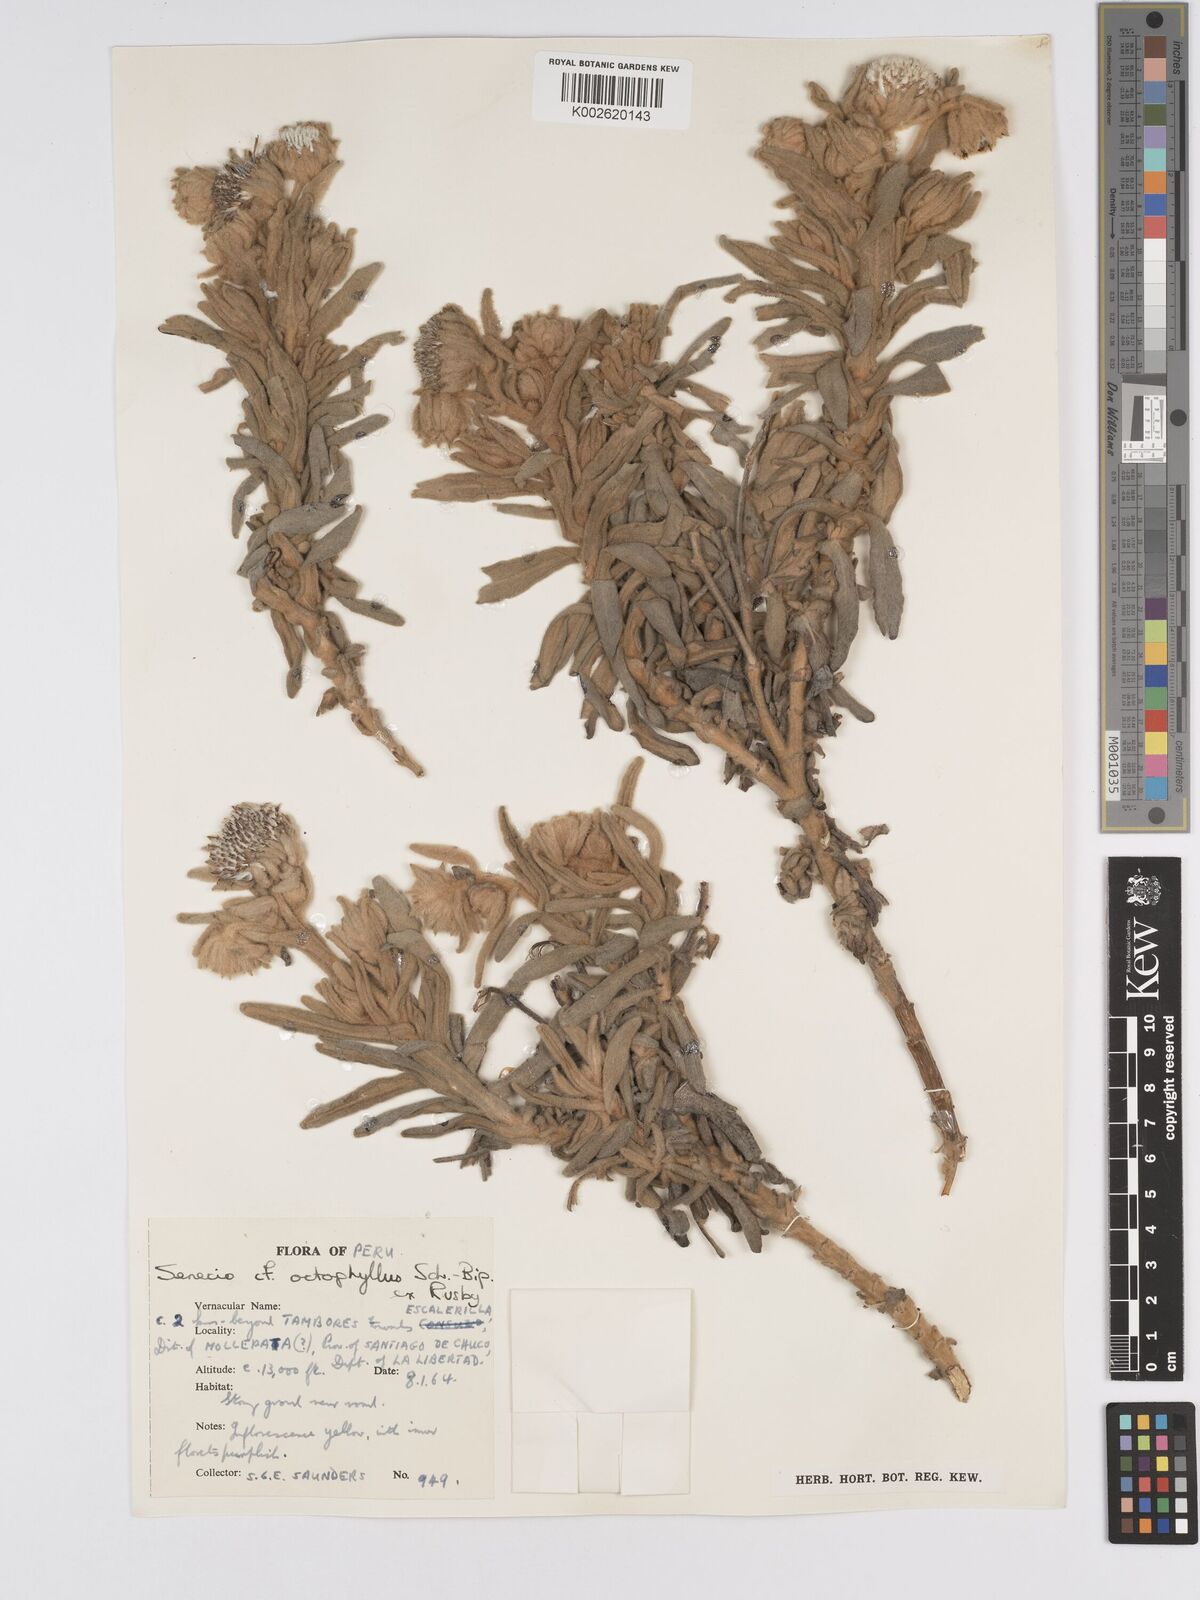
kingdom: Plantae
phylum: Tracheophyta
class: Magnoliopsida
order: Asterales
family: Asteraceae
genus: Senecio
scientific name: Senecio octophyllus
